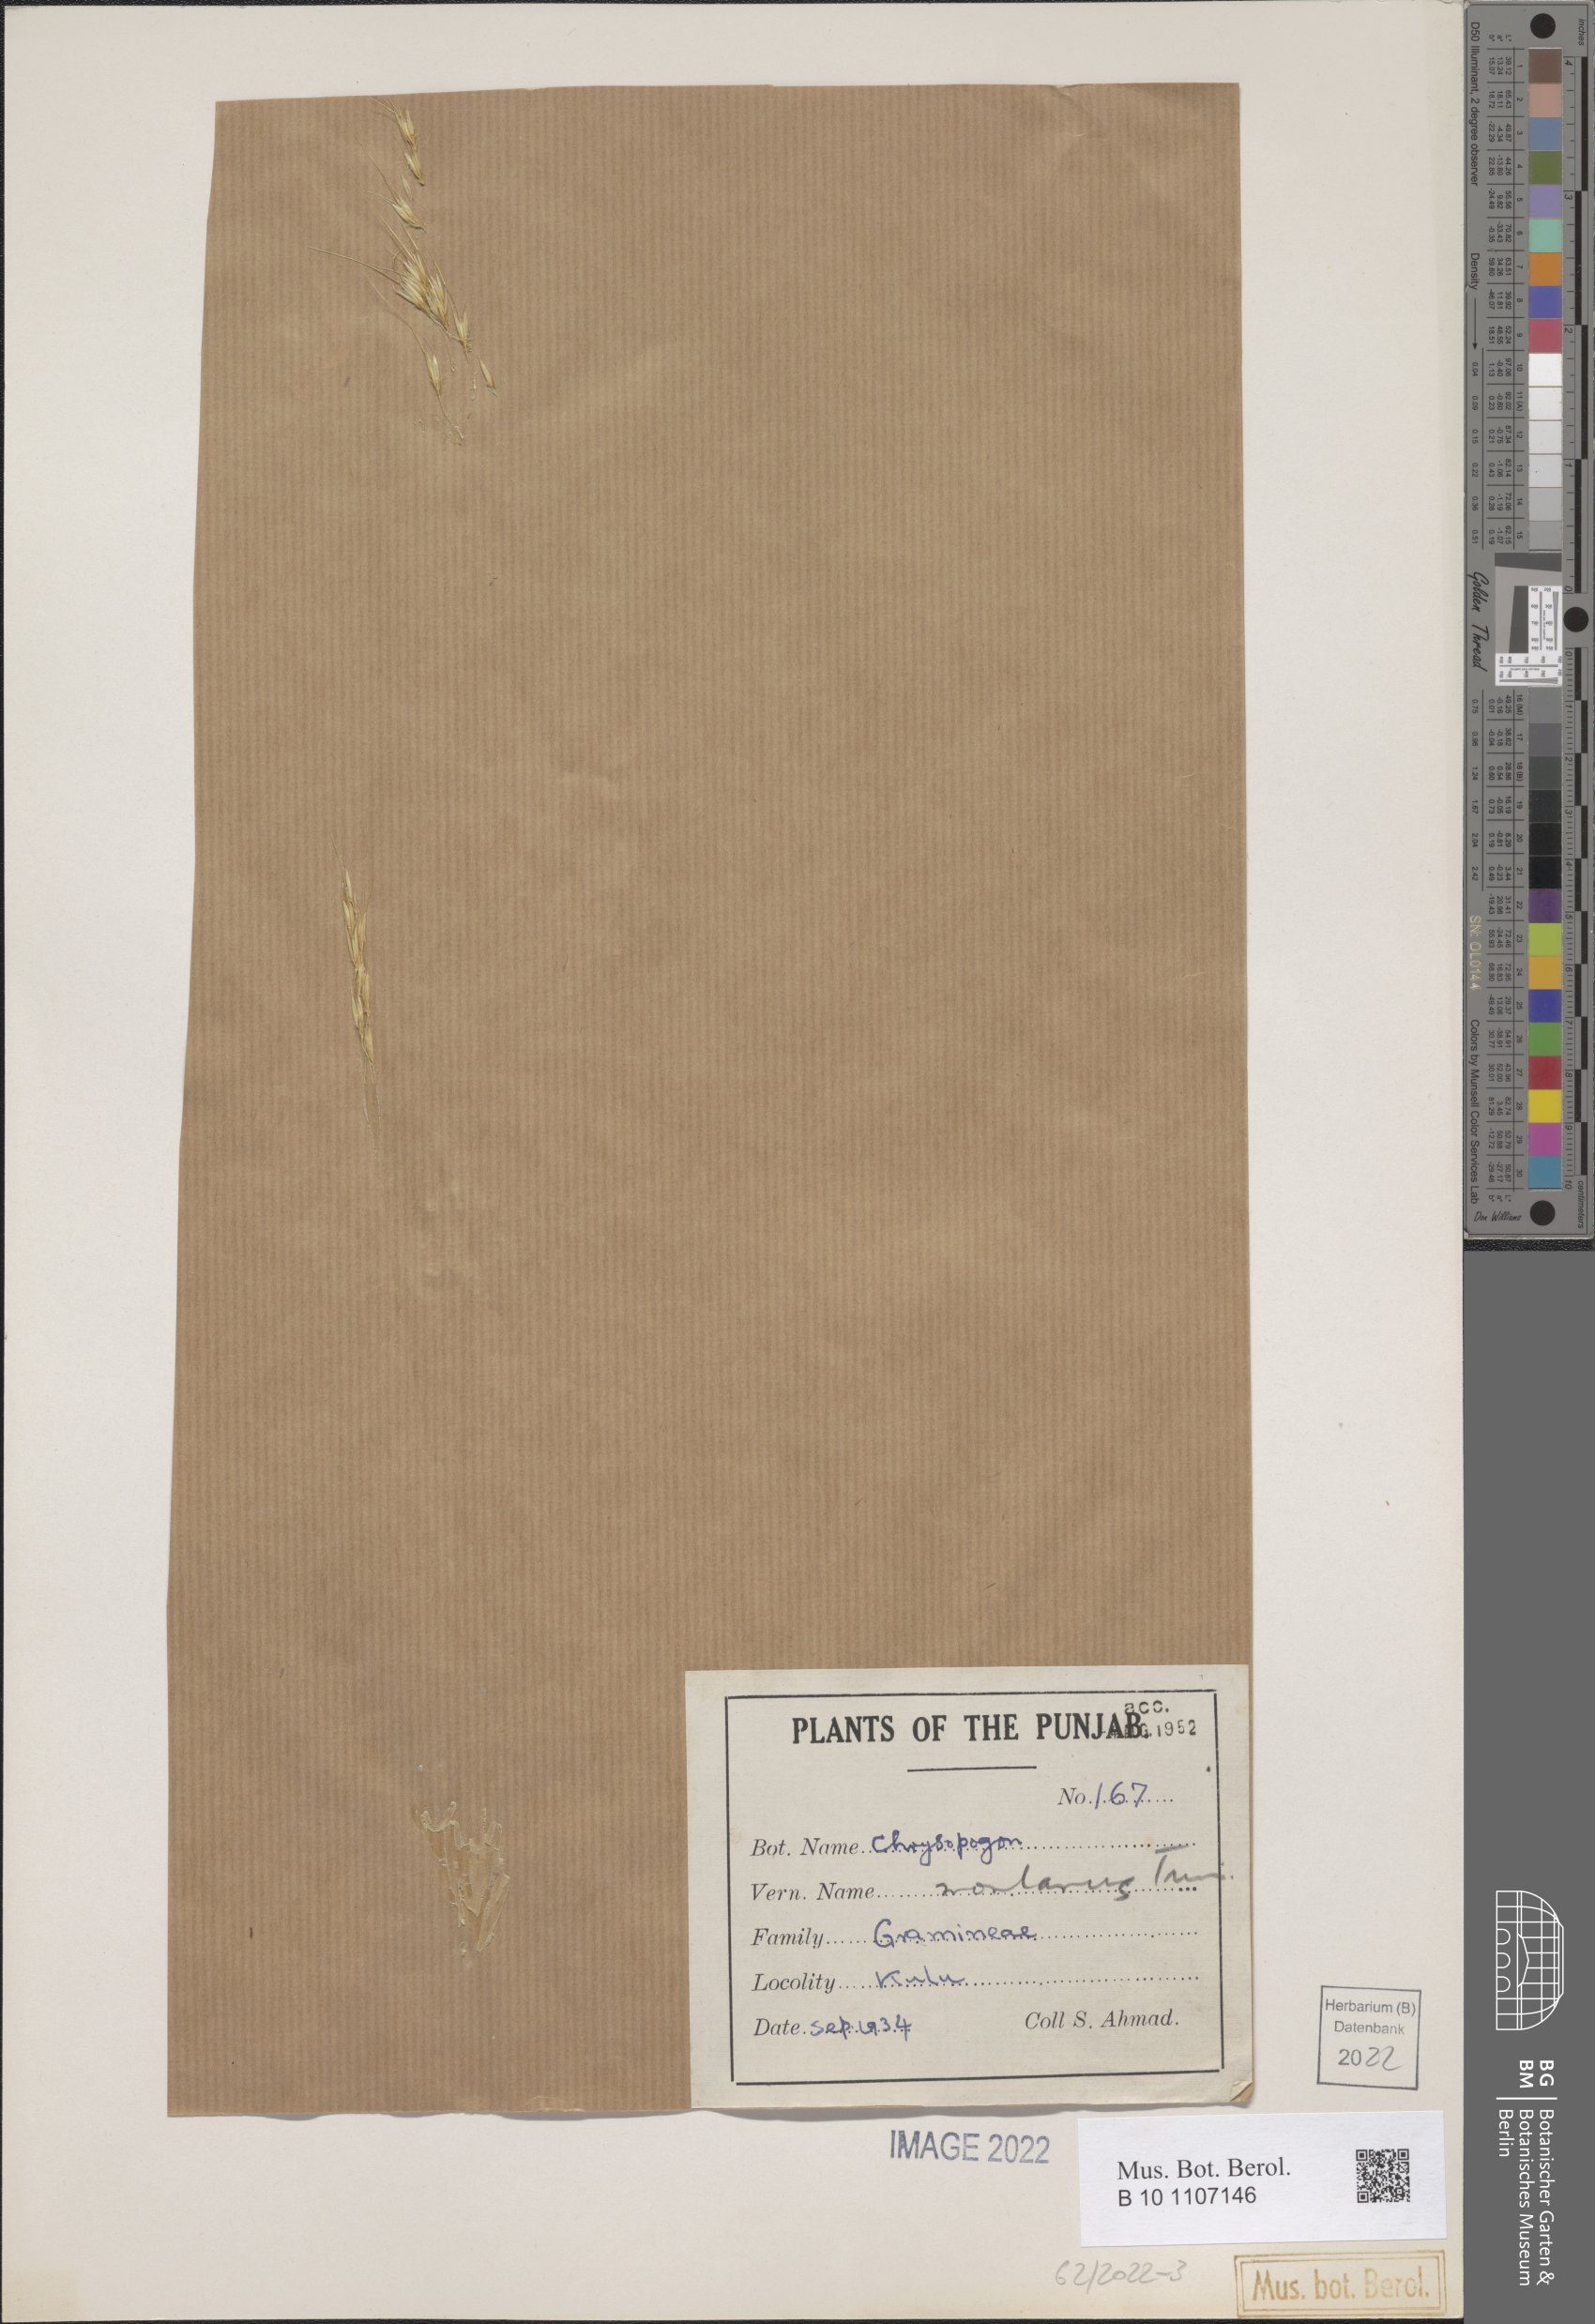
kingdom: Plantae
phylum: Tracheophyta
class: Liliopsida
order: Poales
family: Poaceae
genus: Chrysopogon
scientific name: Chrysopogon fulvus
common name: Red false beardgrass
